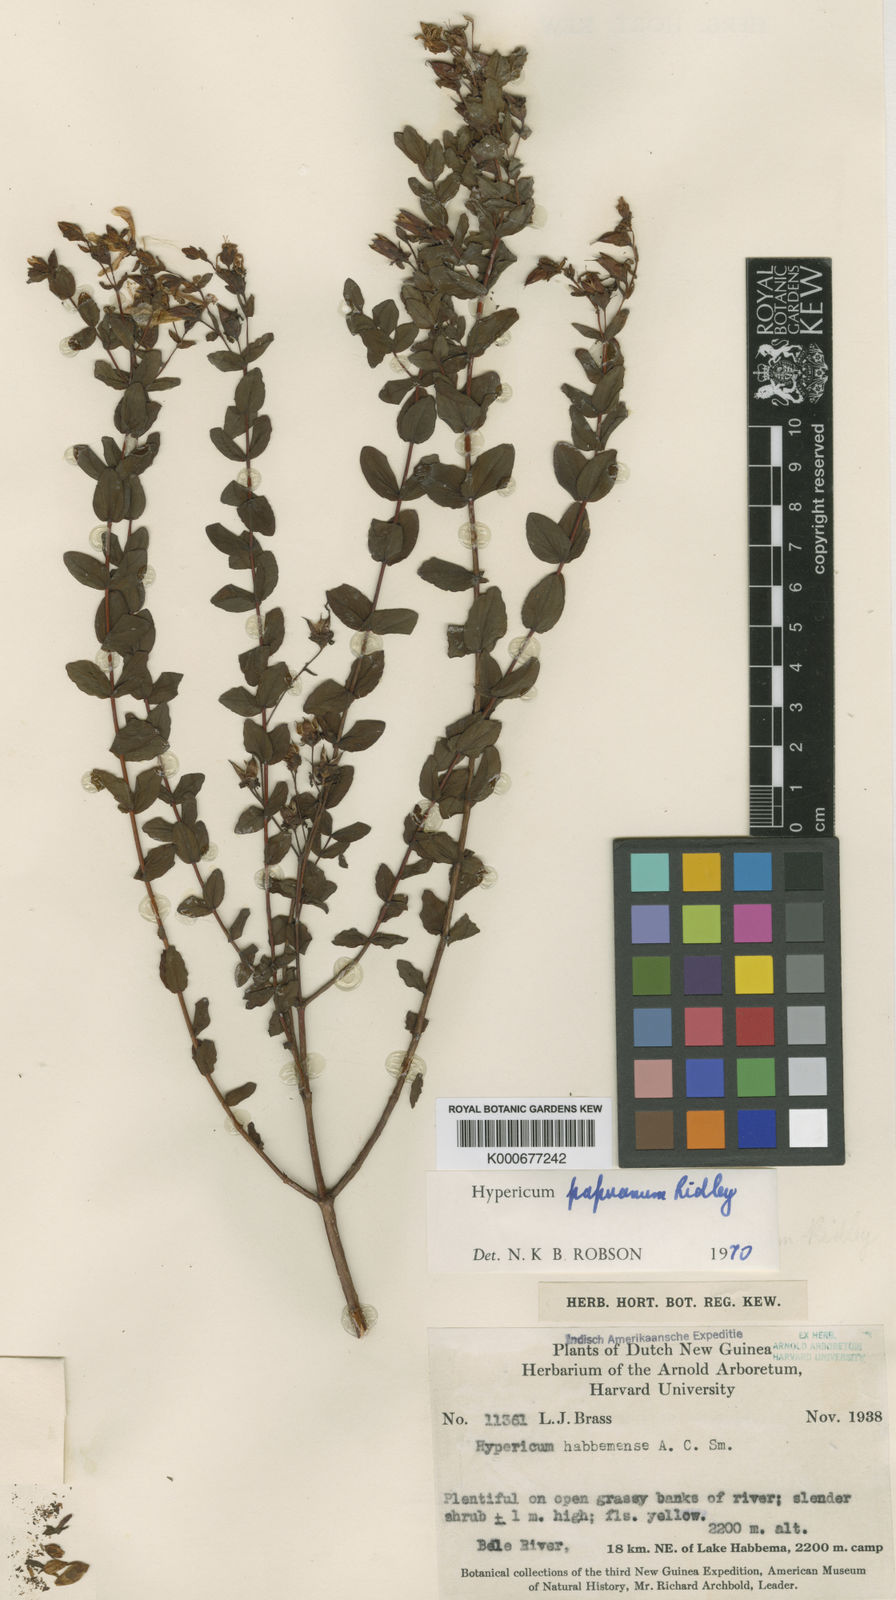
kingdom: Plantae
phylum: Tracheophyta
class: Magnoliopsida
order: Malpighiales
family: Hypericaceae
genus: Hypericum
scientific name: Hypericum papuanum
